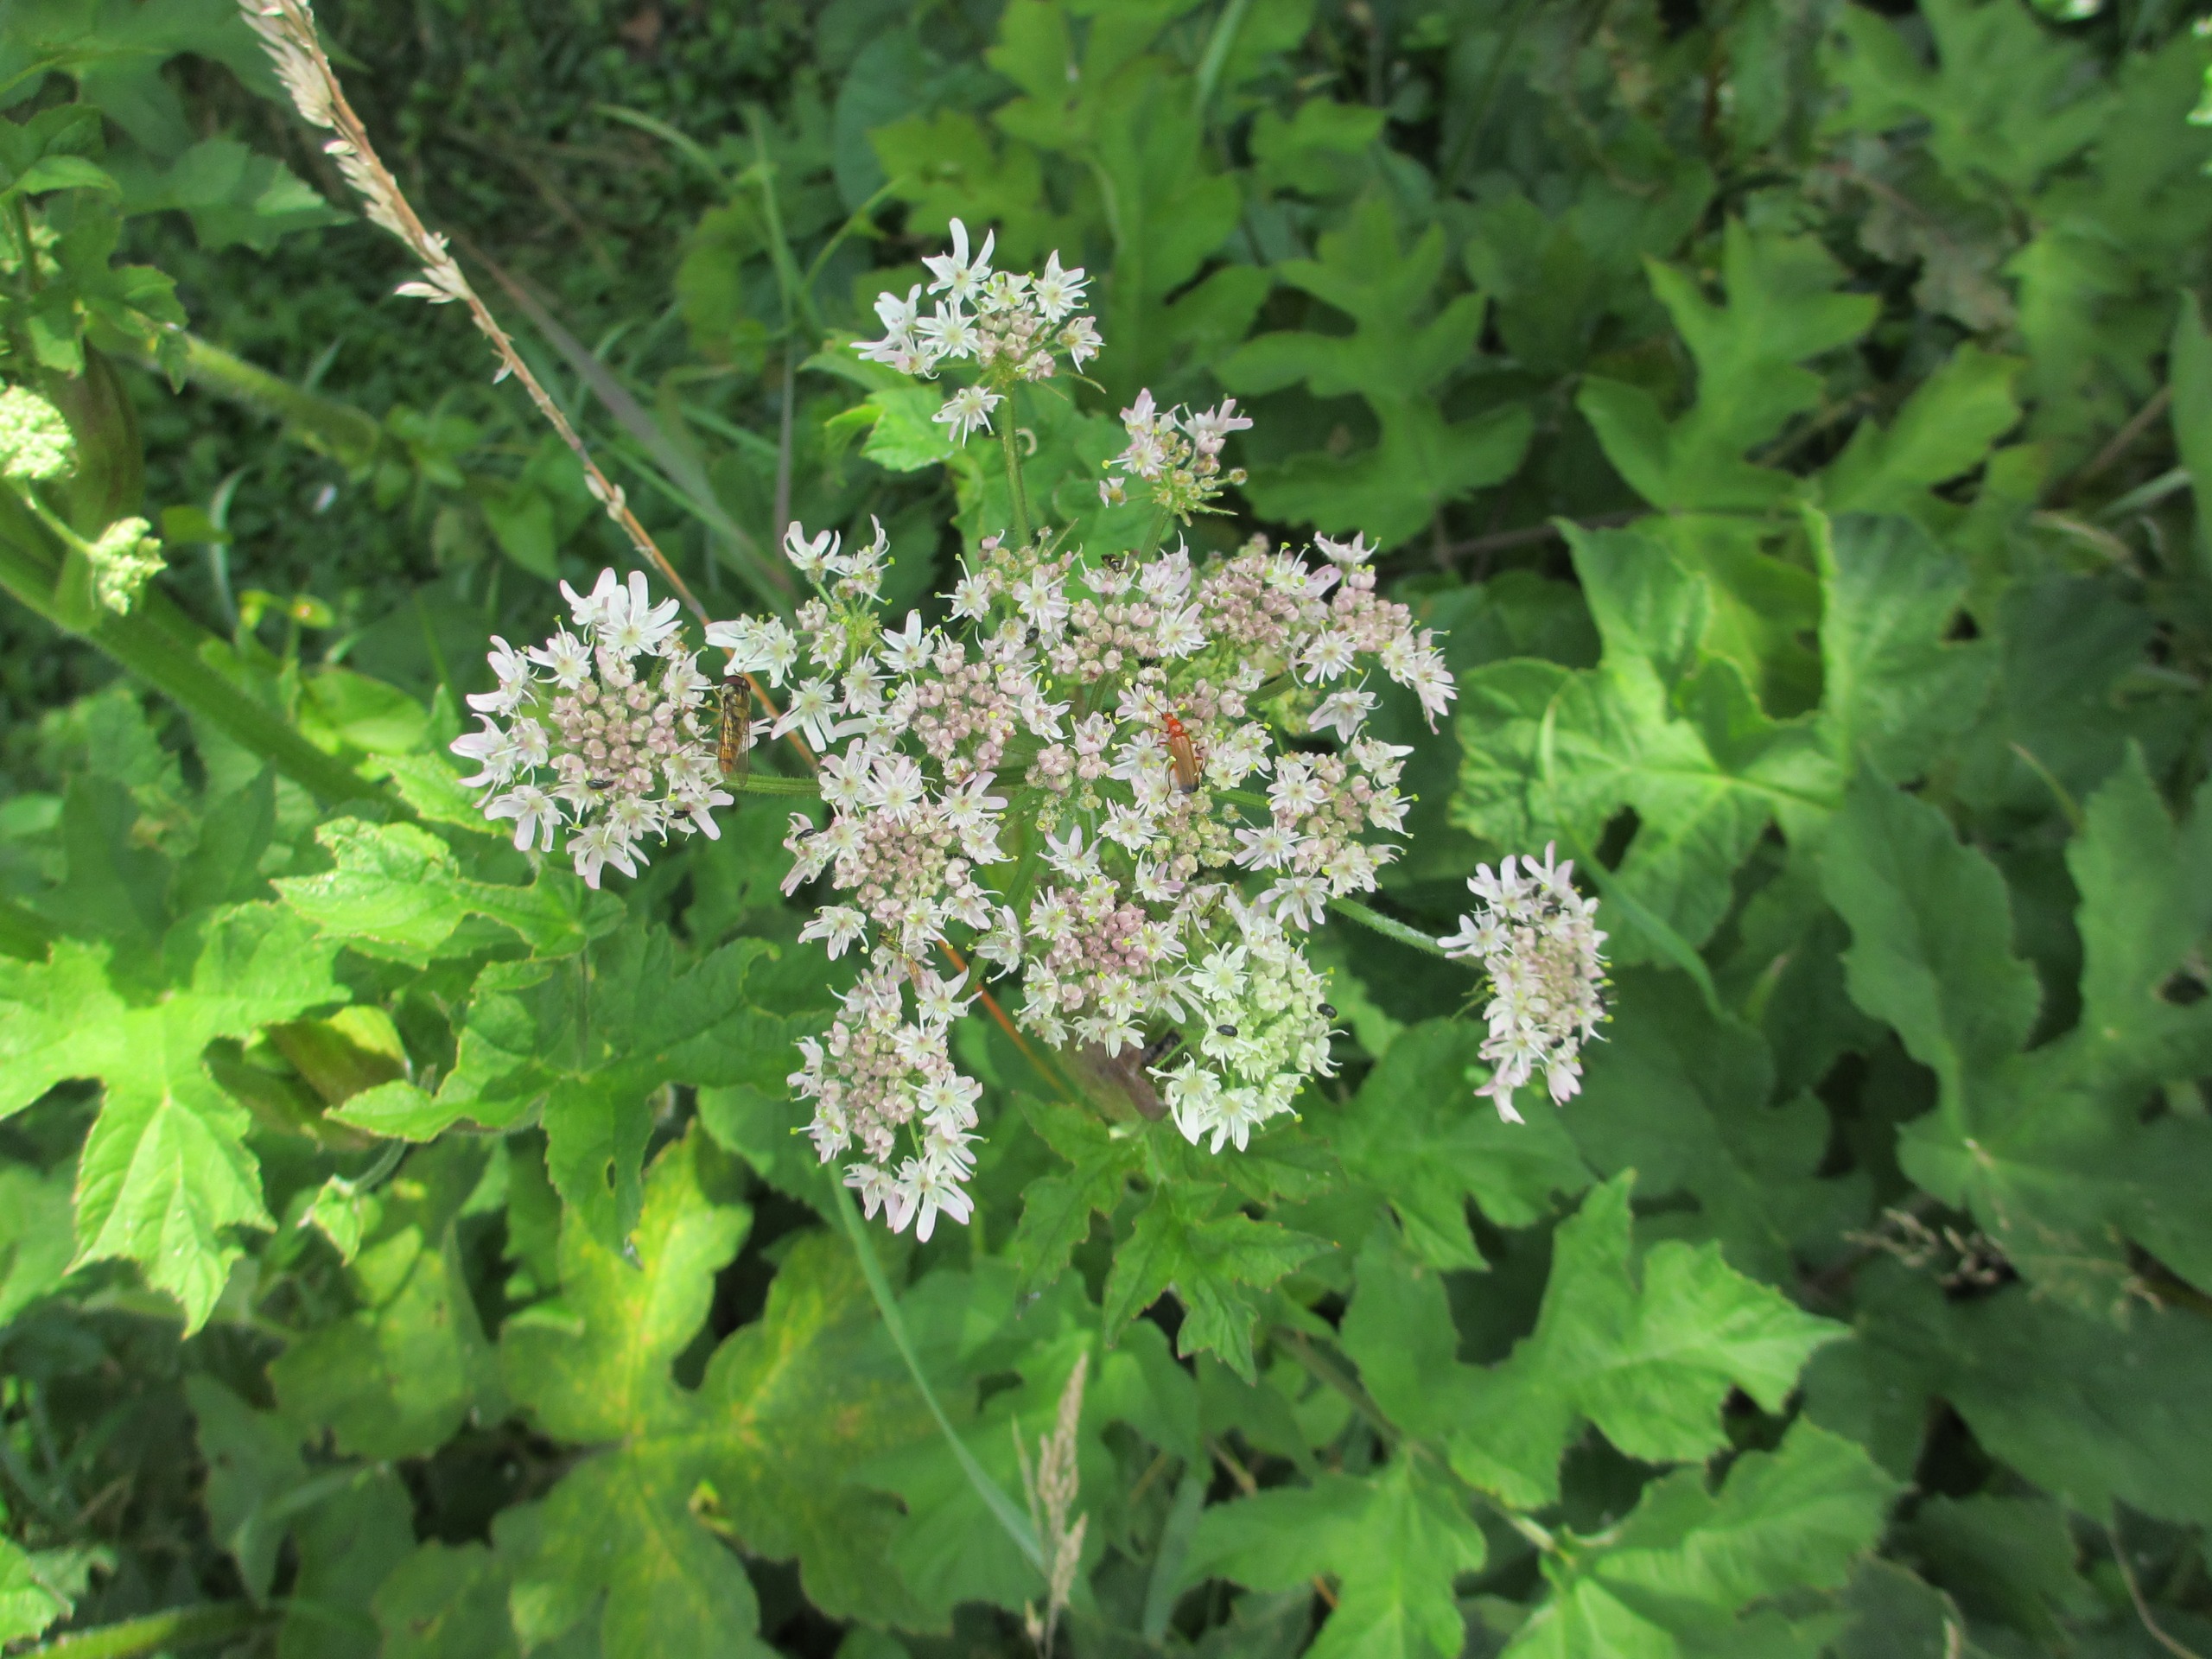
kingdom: Plantae
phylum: Tracheophyta
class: Magnoliopsida
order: Apiales
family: Apiaceae
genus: Heracleum
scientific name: Heracleum sphondylium
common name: Almindelig bjørneklo
